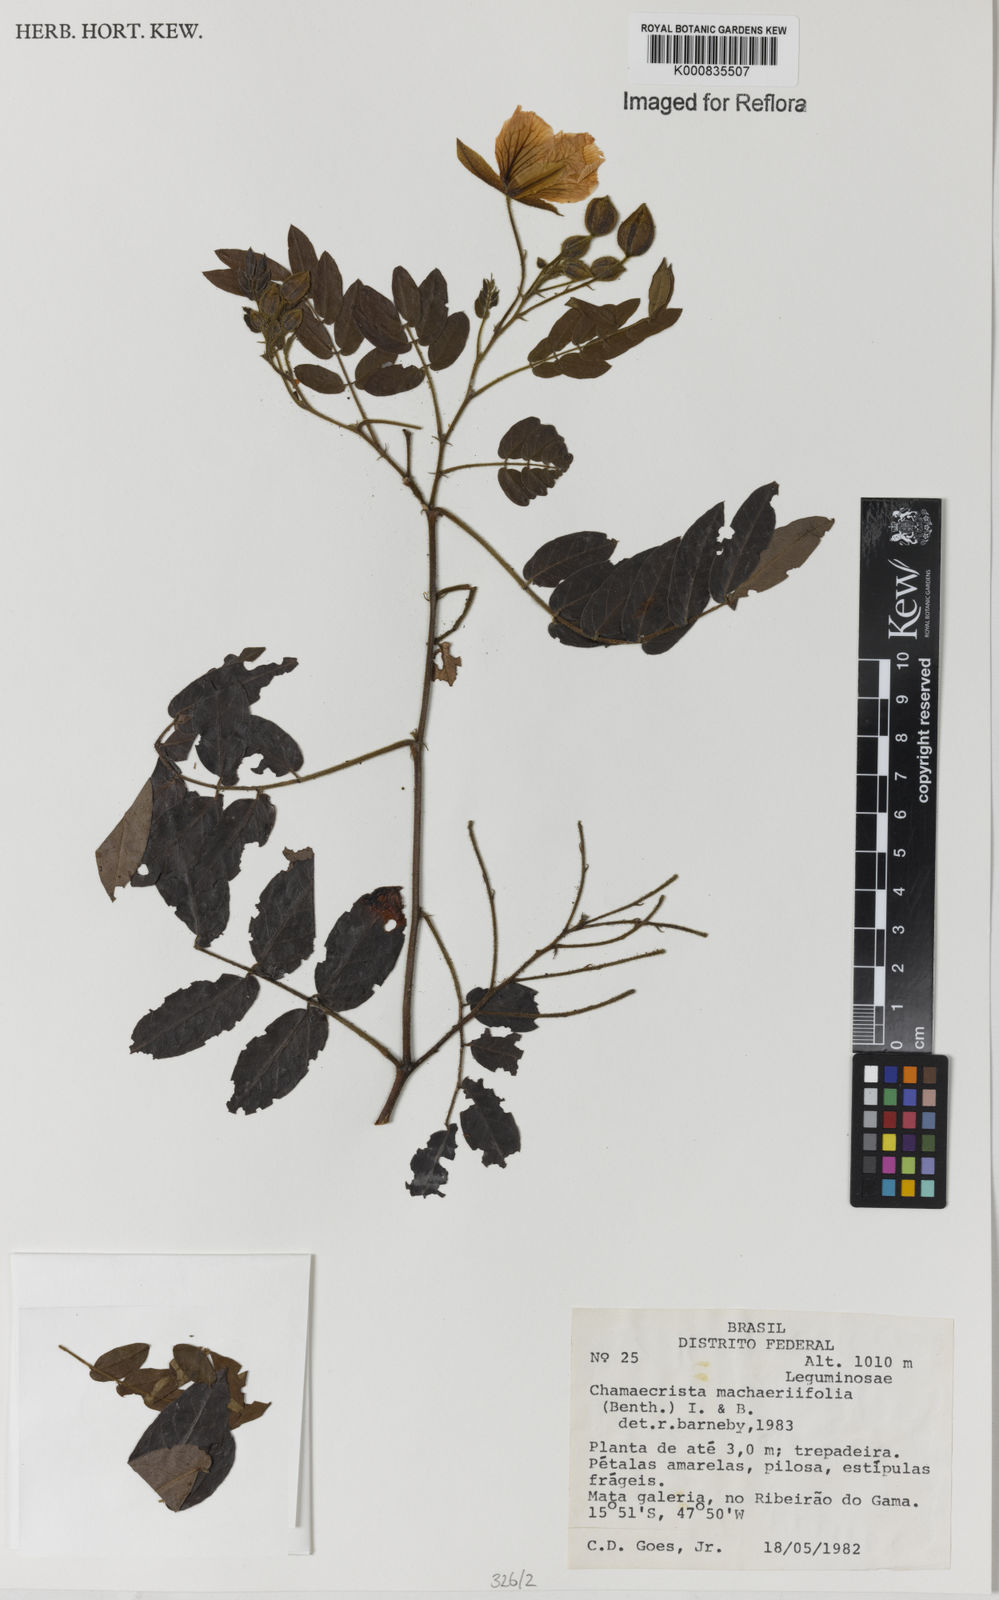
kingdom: Plantae
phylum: Tracheophyta
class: Magnoliopsida
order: Fabales
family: Fabaceae
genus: Chamaecrista
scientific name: Chamaecrista machaeriifolia
